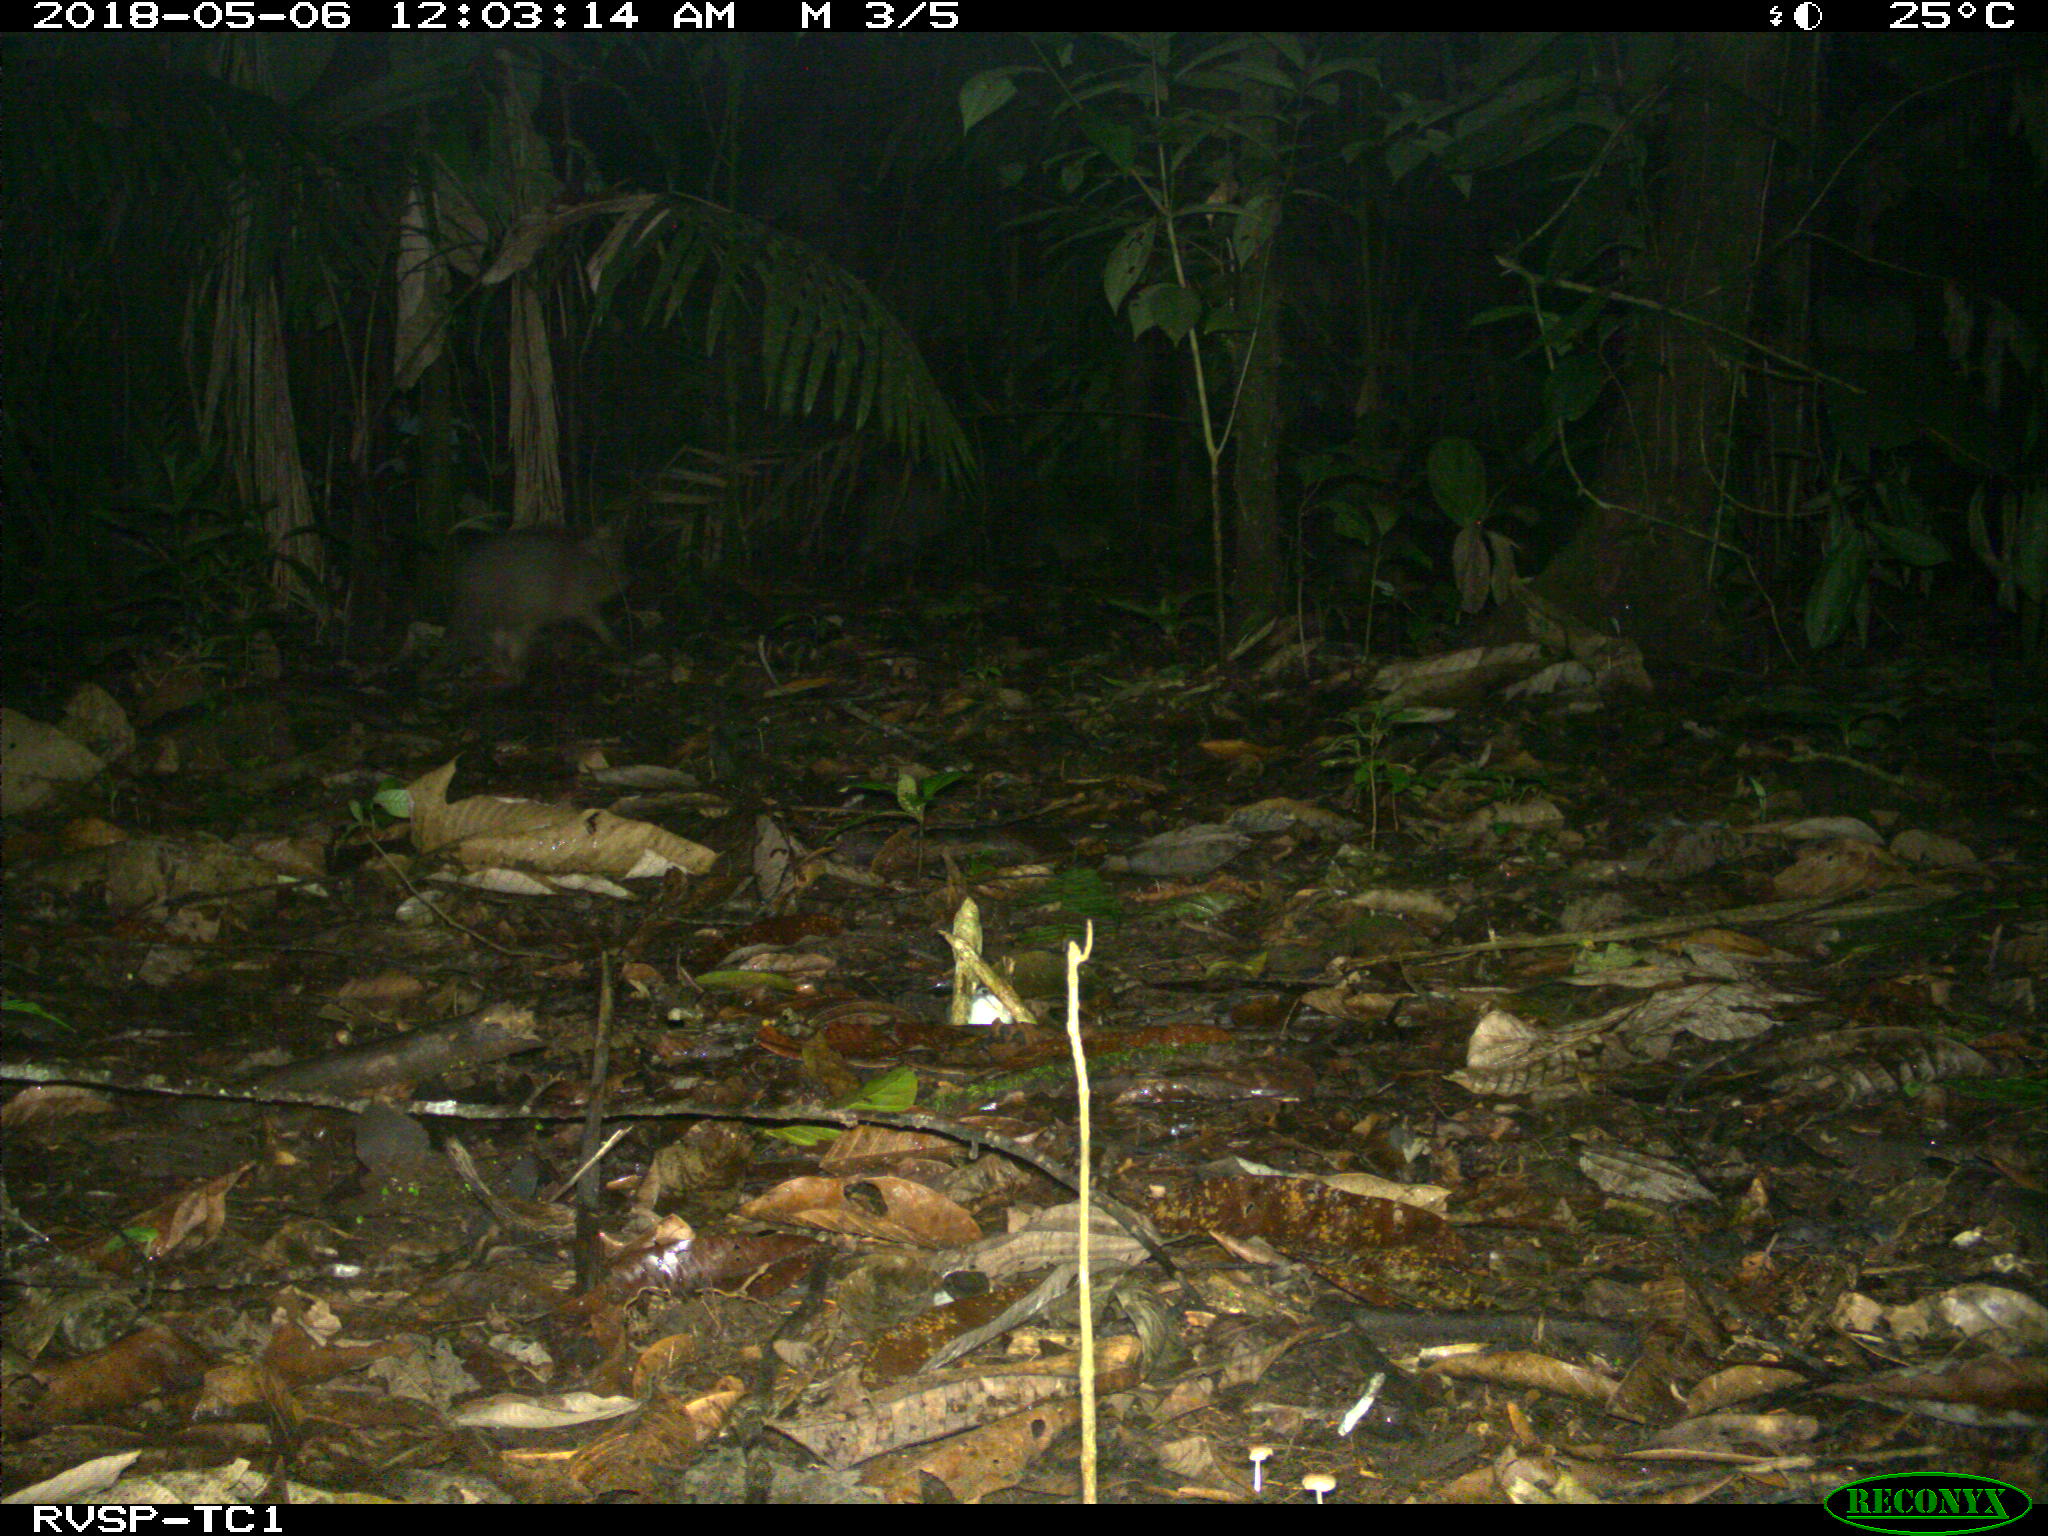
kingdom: Animalia
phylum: Chordata
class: Mammalia
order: Artiodactyla
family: Tayassuidae
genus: Tayassu
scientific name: Tayassu pecari
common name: White-lipped peccary
